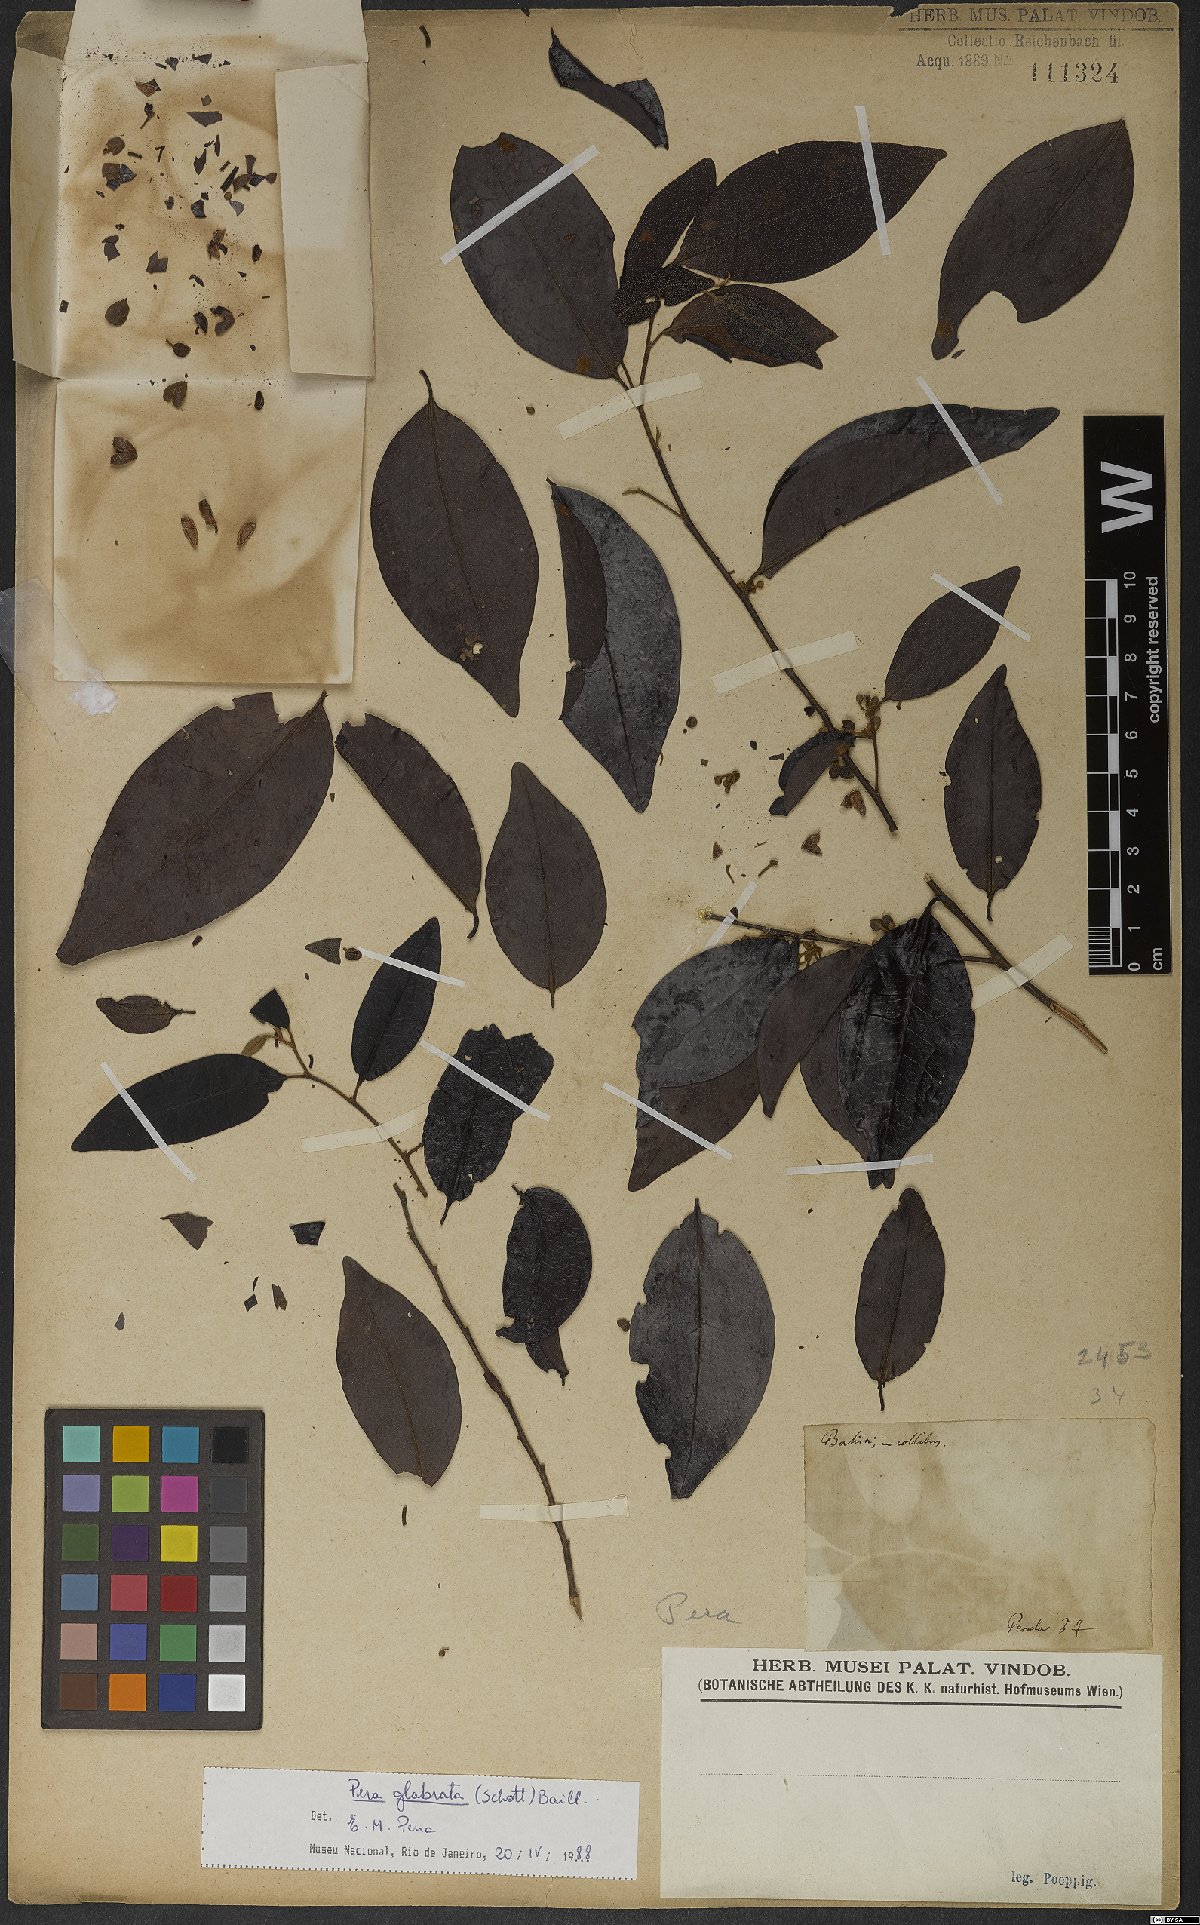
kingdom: Plantae
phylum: Tracheophyta
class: Magnoliopsida
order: Malpighiales
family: Peraceae
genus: Pera
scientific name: Pera glabrata
